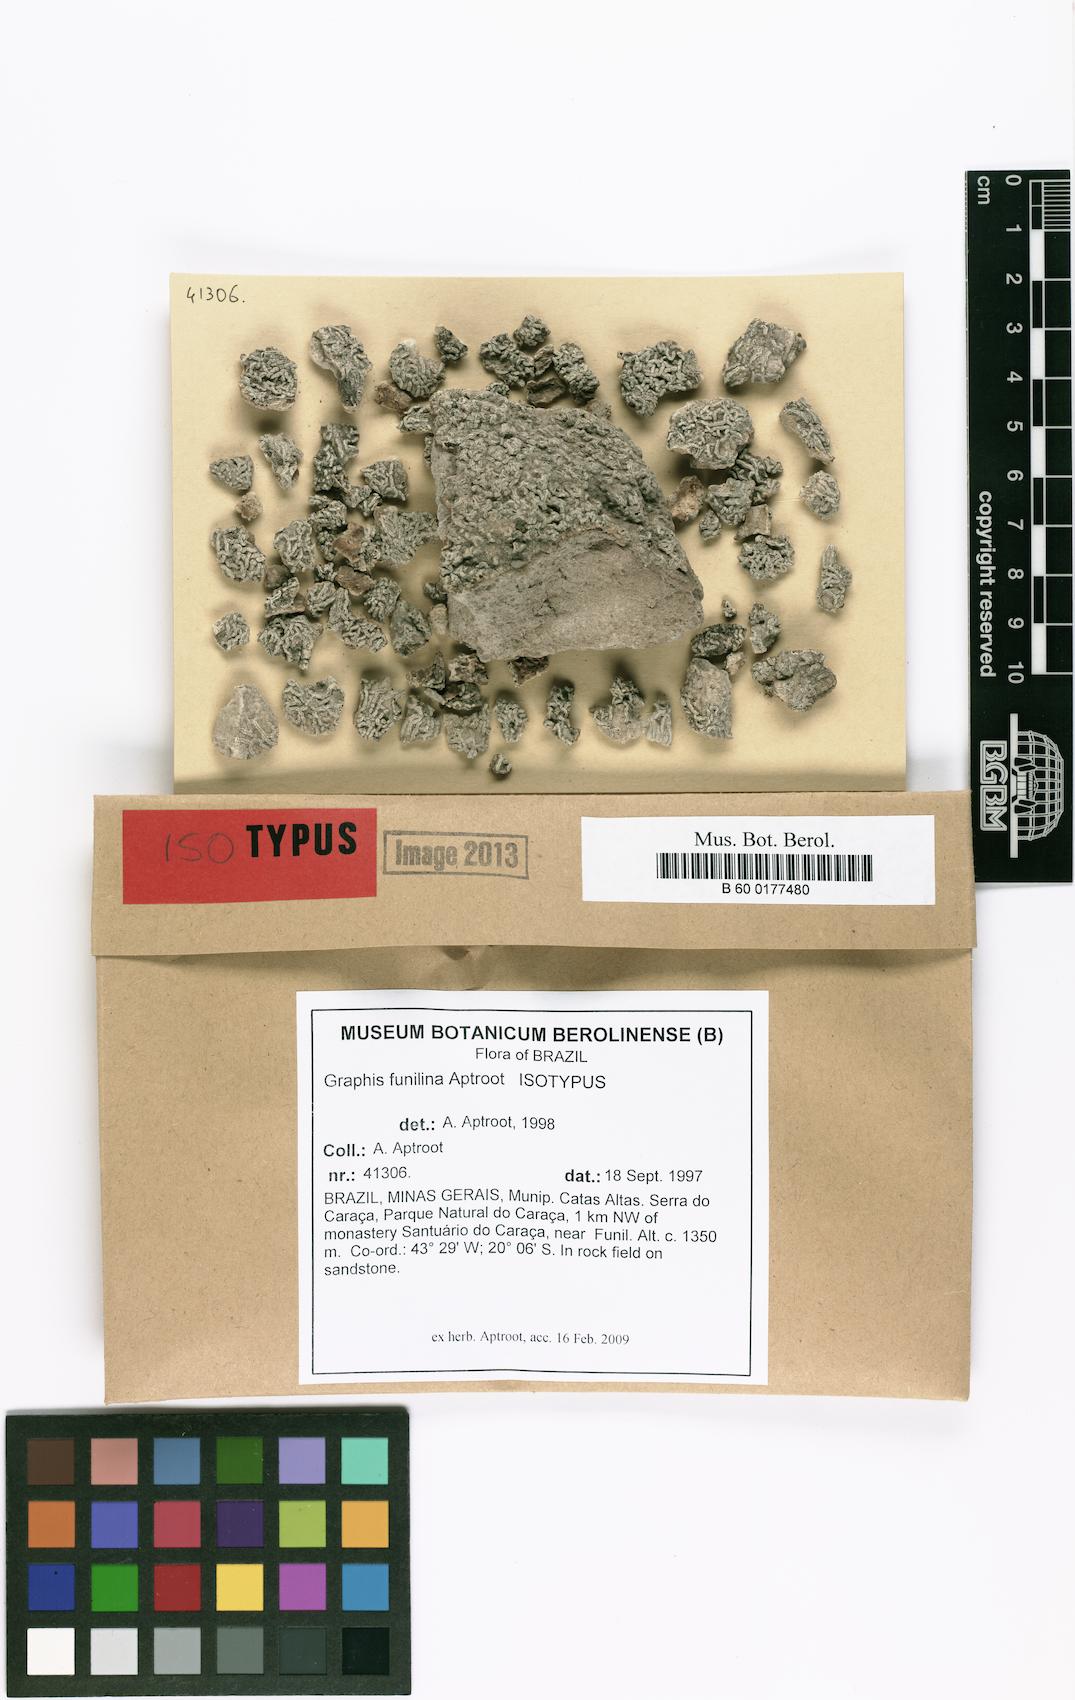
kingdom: Fungi
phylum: Ascomycota
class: Lecanoromycetes
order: Ostropales
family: Graphidaceae
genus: Allographa
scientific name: Allographa funilina
